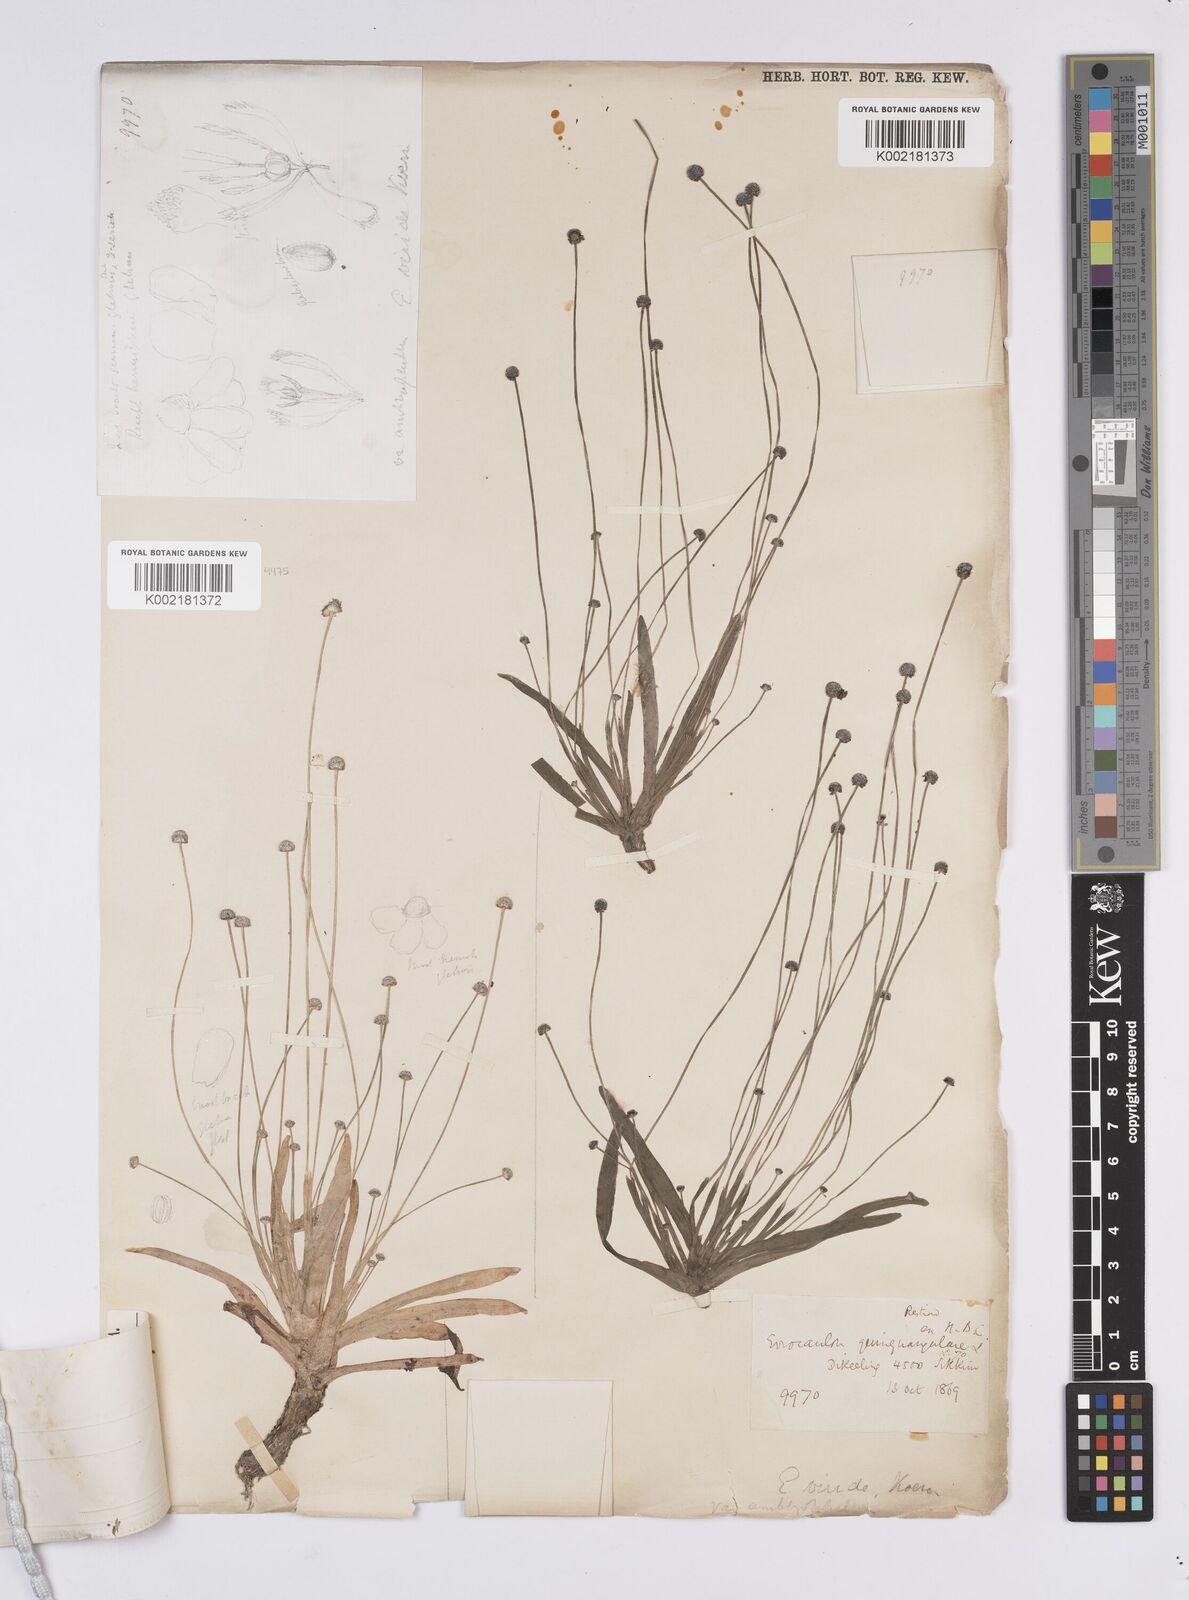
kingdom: Plantae
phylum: Tracheophyta
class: Liliopsida
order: Poales
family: Eriocaulaceae
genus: Eriocaulon
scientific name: Eriocaulon nepalense
